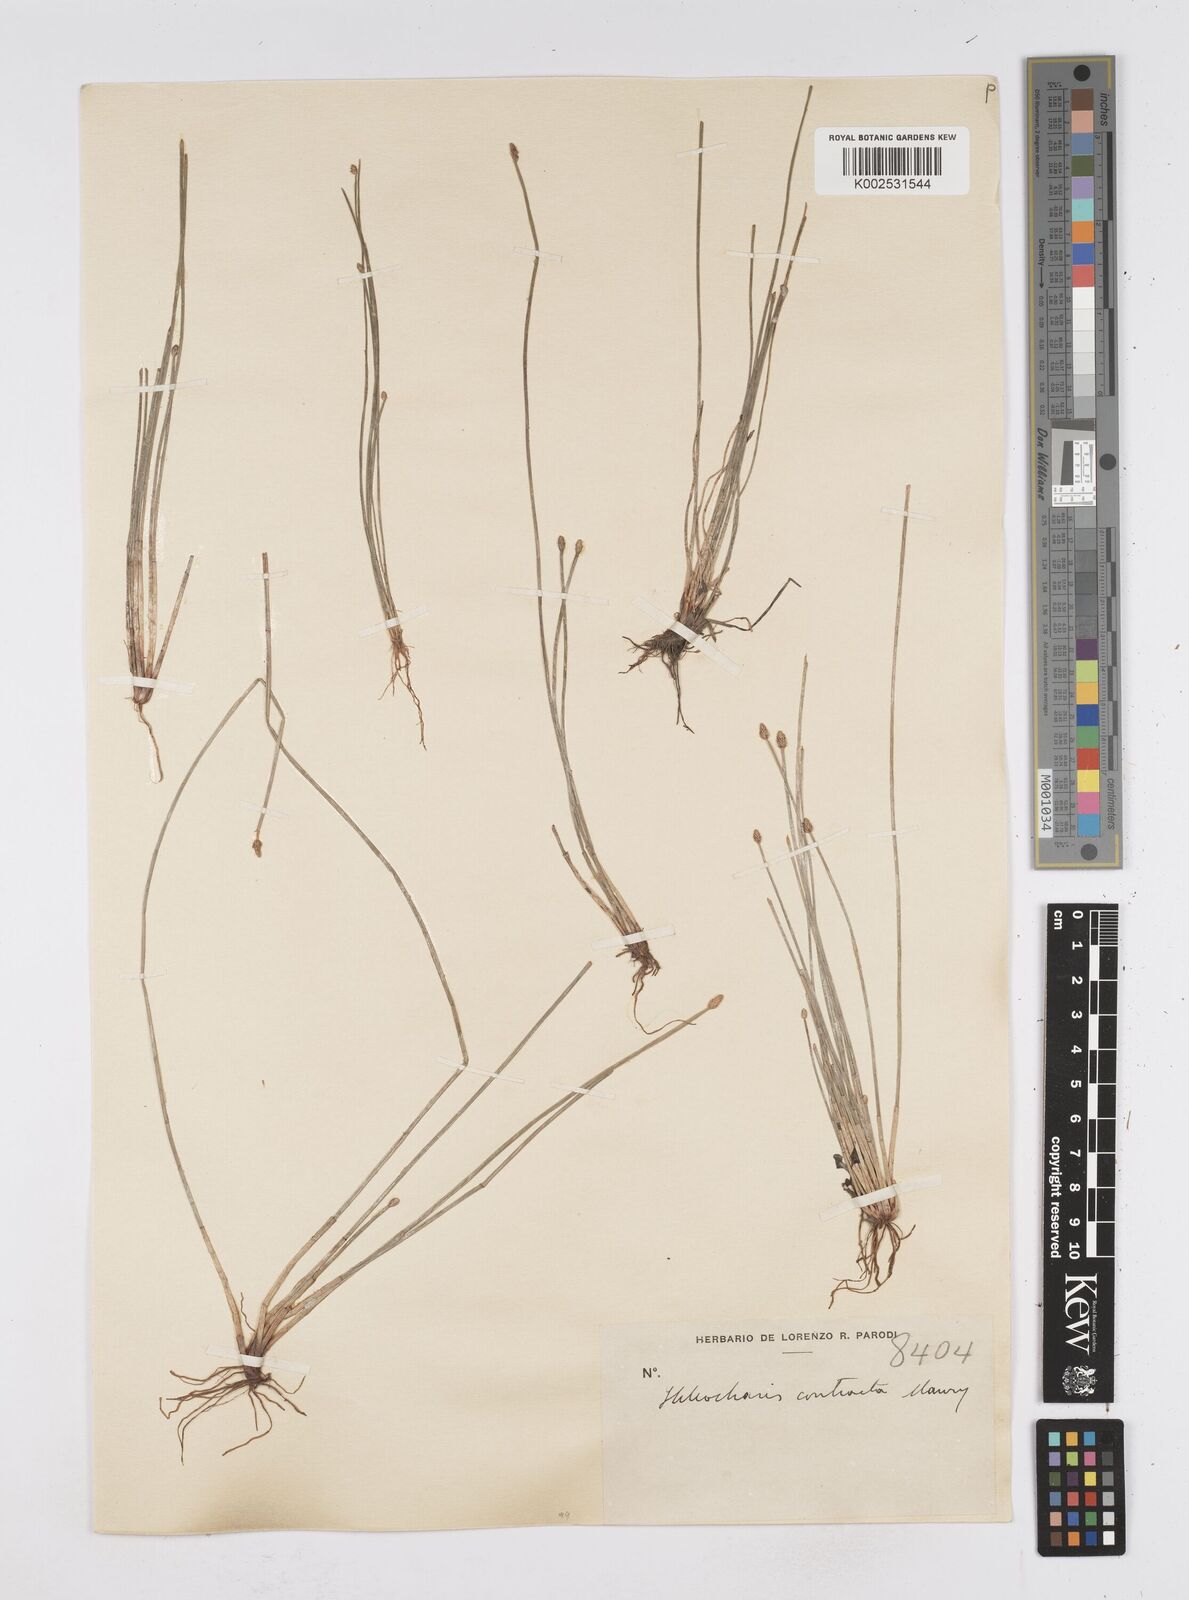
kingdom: Plantae
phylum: Tracheophyta
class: Liliopsida
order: Poales
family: Cyperaceae
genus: Eleocharis
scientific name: Eleocharis montana
